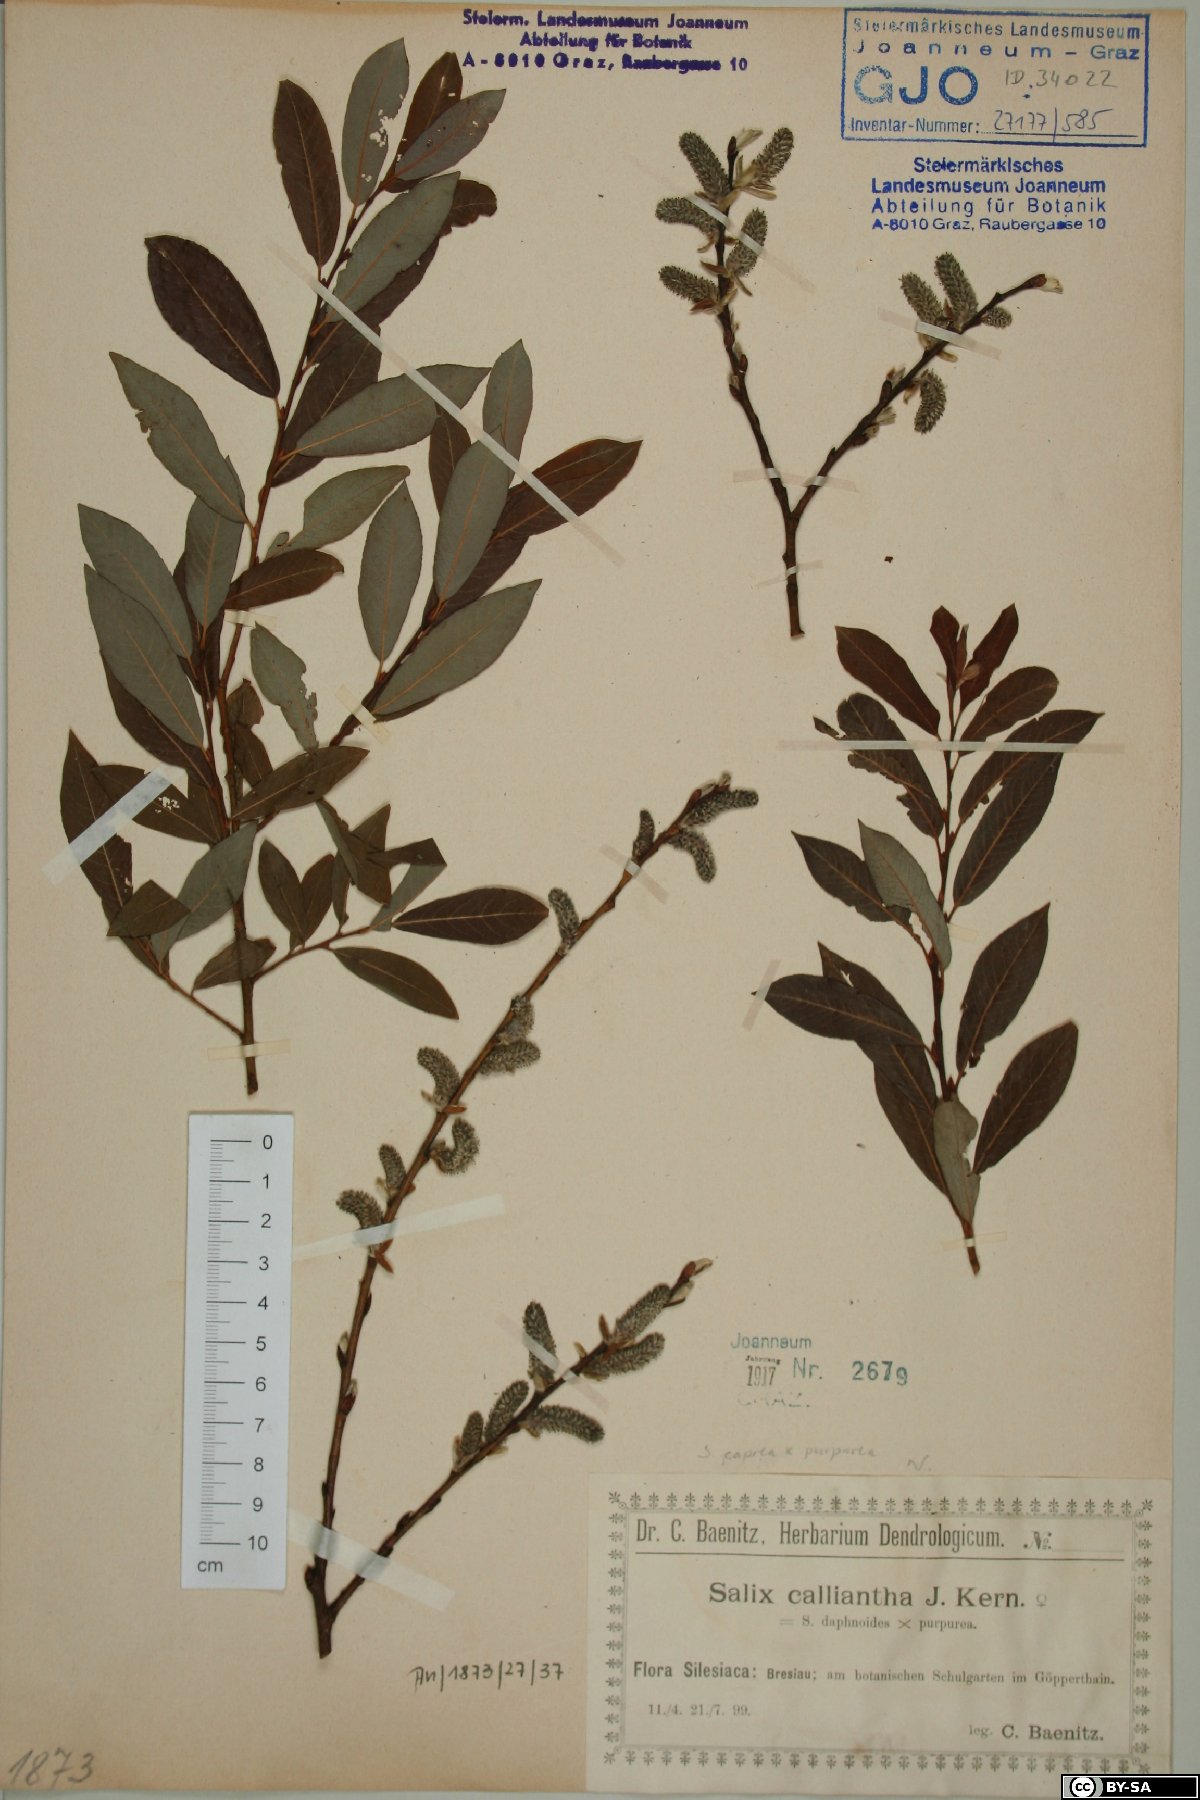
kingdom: Plantae
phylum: Tracheophyta
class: Magnoliopsida
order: Malpighiales
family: Salicaceae
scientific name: Salicaceae
